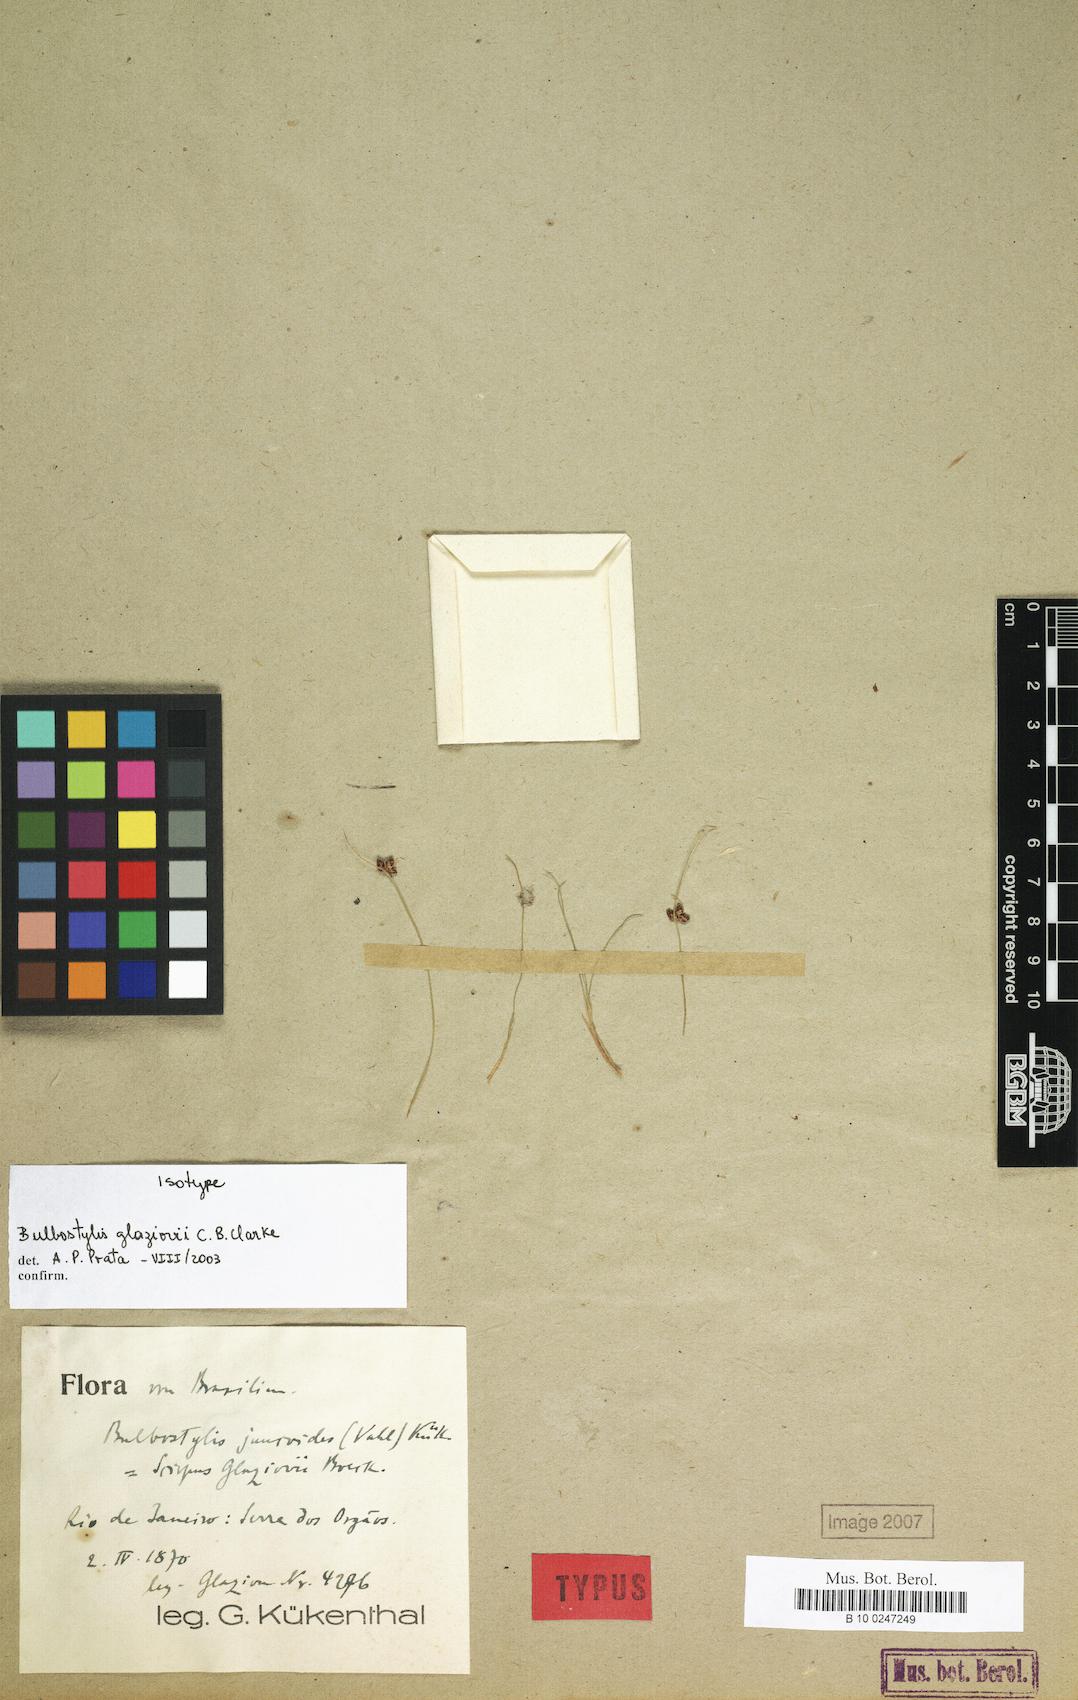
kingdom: Plantae
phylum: Tracheophyta
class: Liliopsida
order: Poales
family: Cyperaceae
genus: Bulbostylis
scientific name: Bulbostylis juncoides
